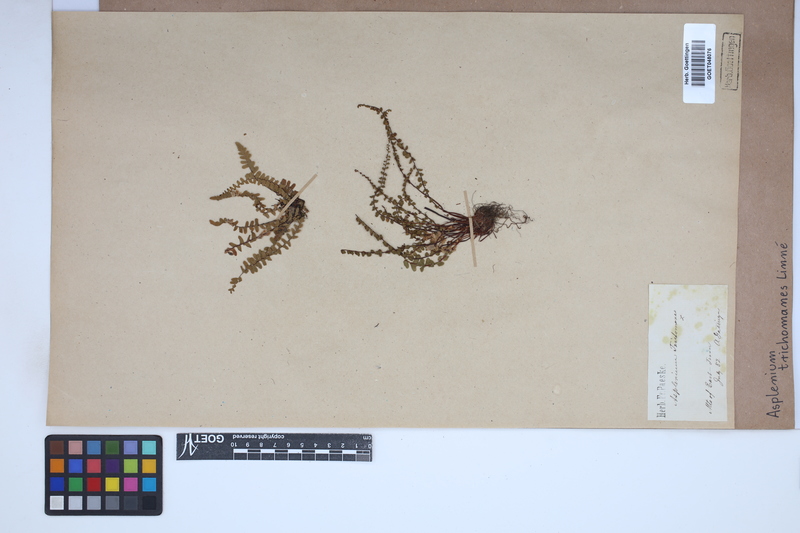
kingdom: Plantae
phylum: Tracheophyta
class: Polypodiopsida
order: Polypodiales
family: Aspleniaceae
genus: Asplenium
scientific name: Asplenium trichomanes
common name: Maidenhair spleenwort
